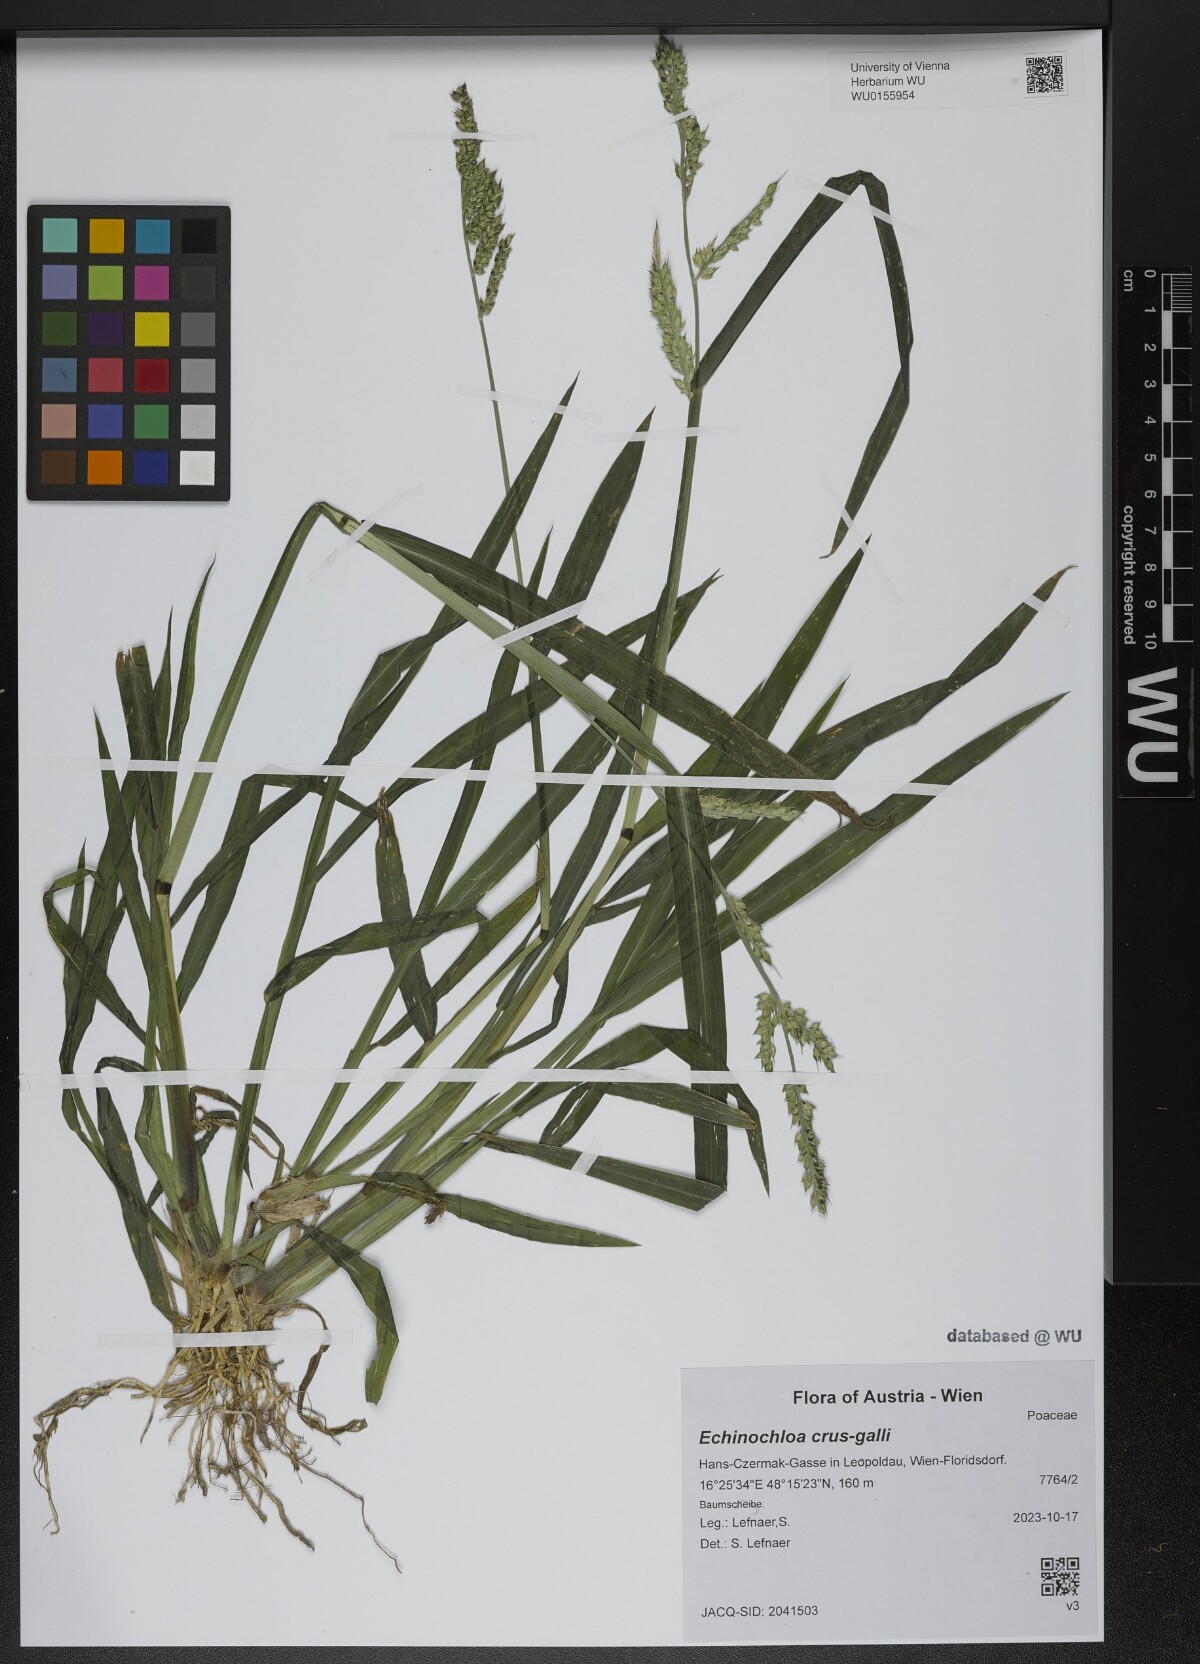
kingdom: Plantae
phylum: Tracheophyta
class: Liliopsida
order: Poales
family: Poaceae
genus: Echinochloa
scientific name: Echinochloa crus-galli
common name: Cockspur
